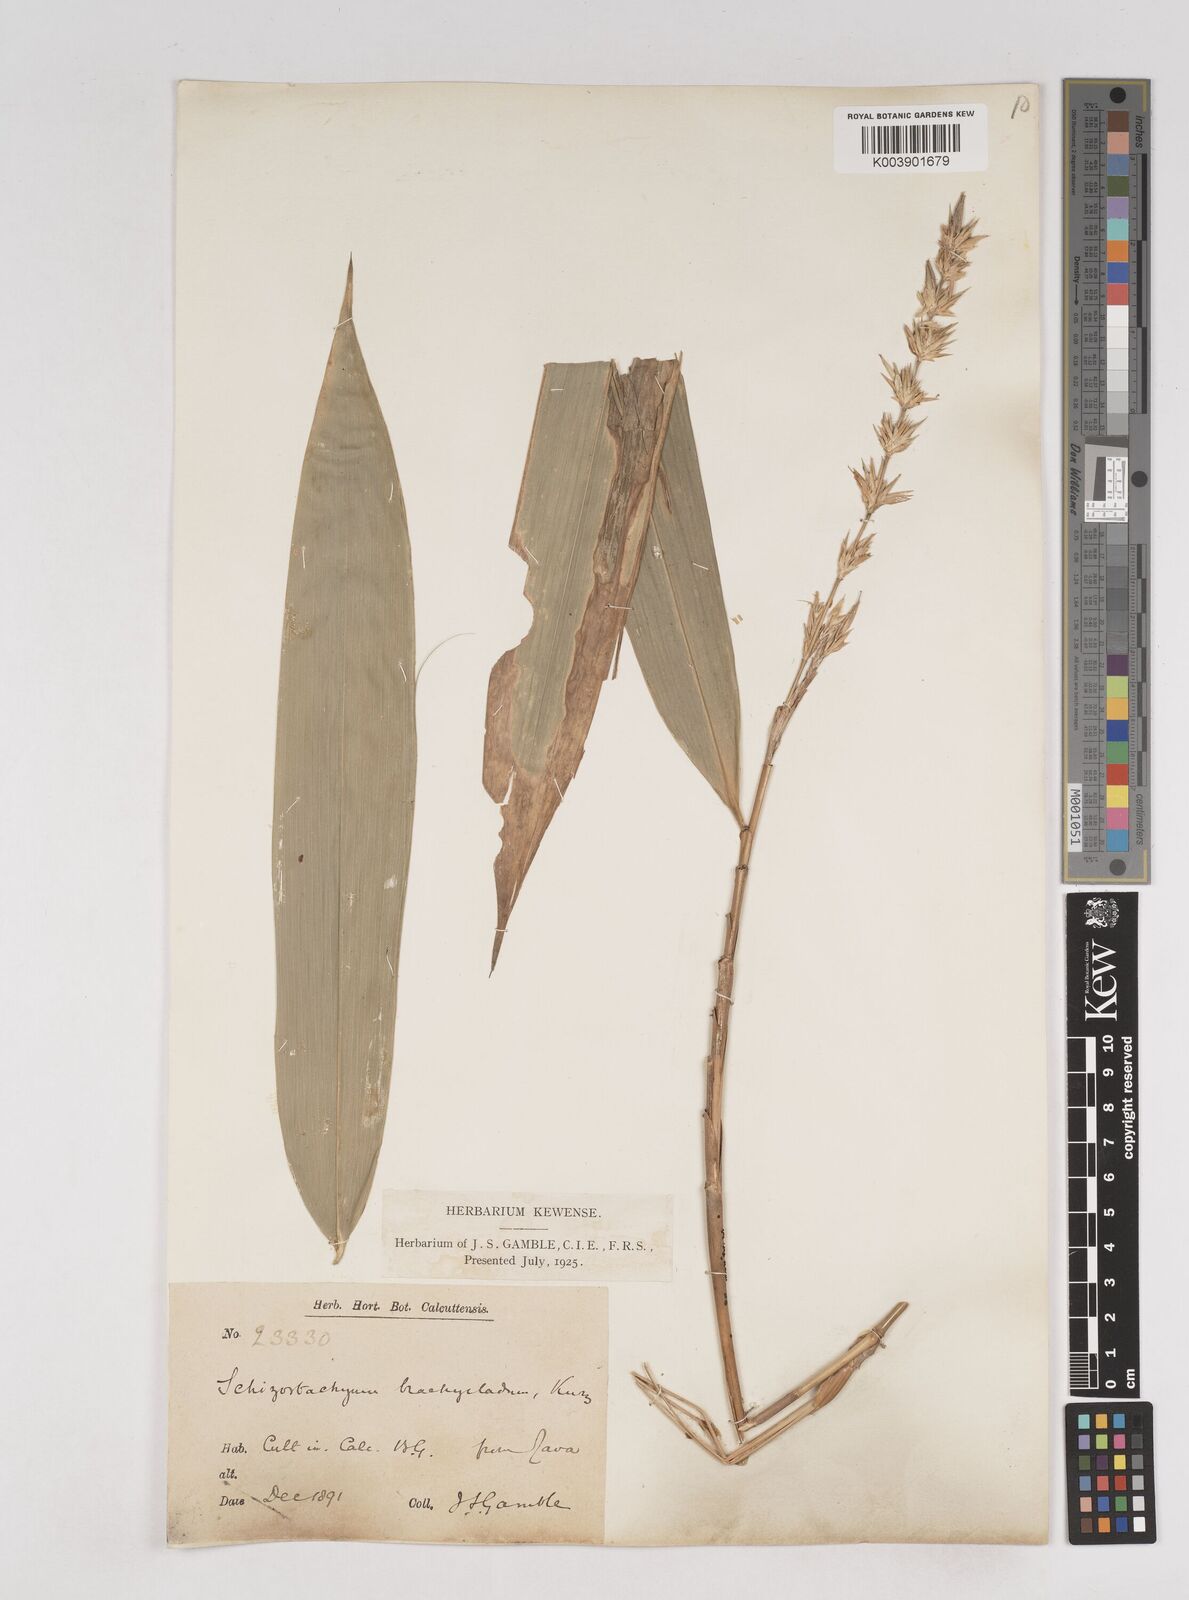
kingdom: Plantae
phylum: Tracheophyta
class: Liliopsida
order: Poales
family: Poaceae
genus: Schizostachyum
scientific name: Schizostachyum brachycladum
